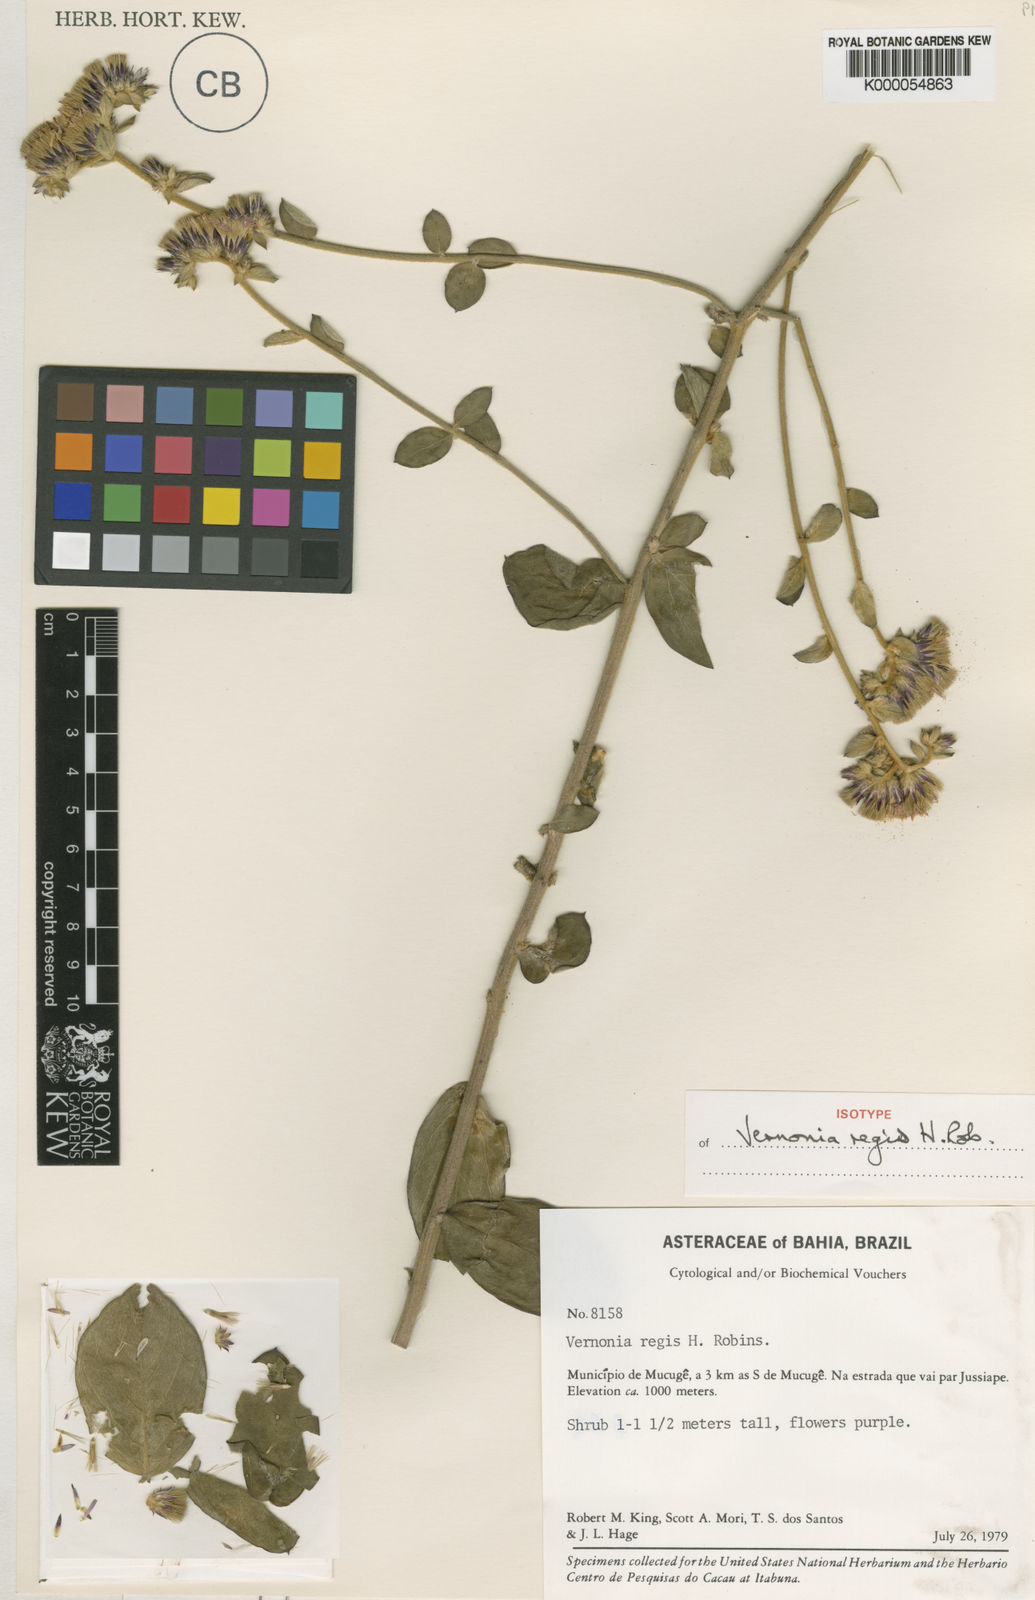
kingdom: Plantae
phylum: Tracheophyta
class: Magnoliopsida
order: Asterales
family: Asteraceae
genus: Lessingianthus
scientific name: Lessingianthus regis
